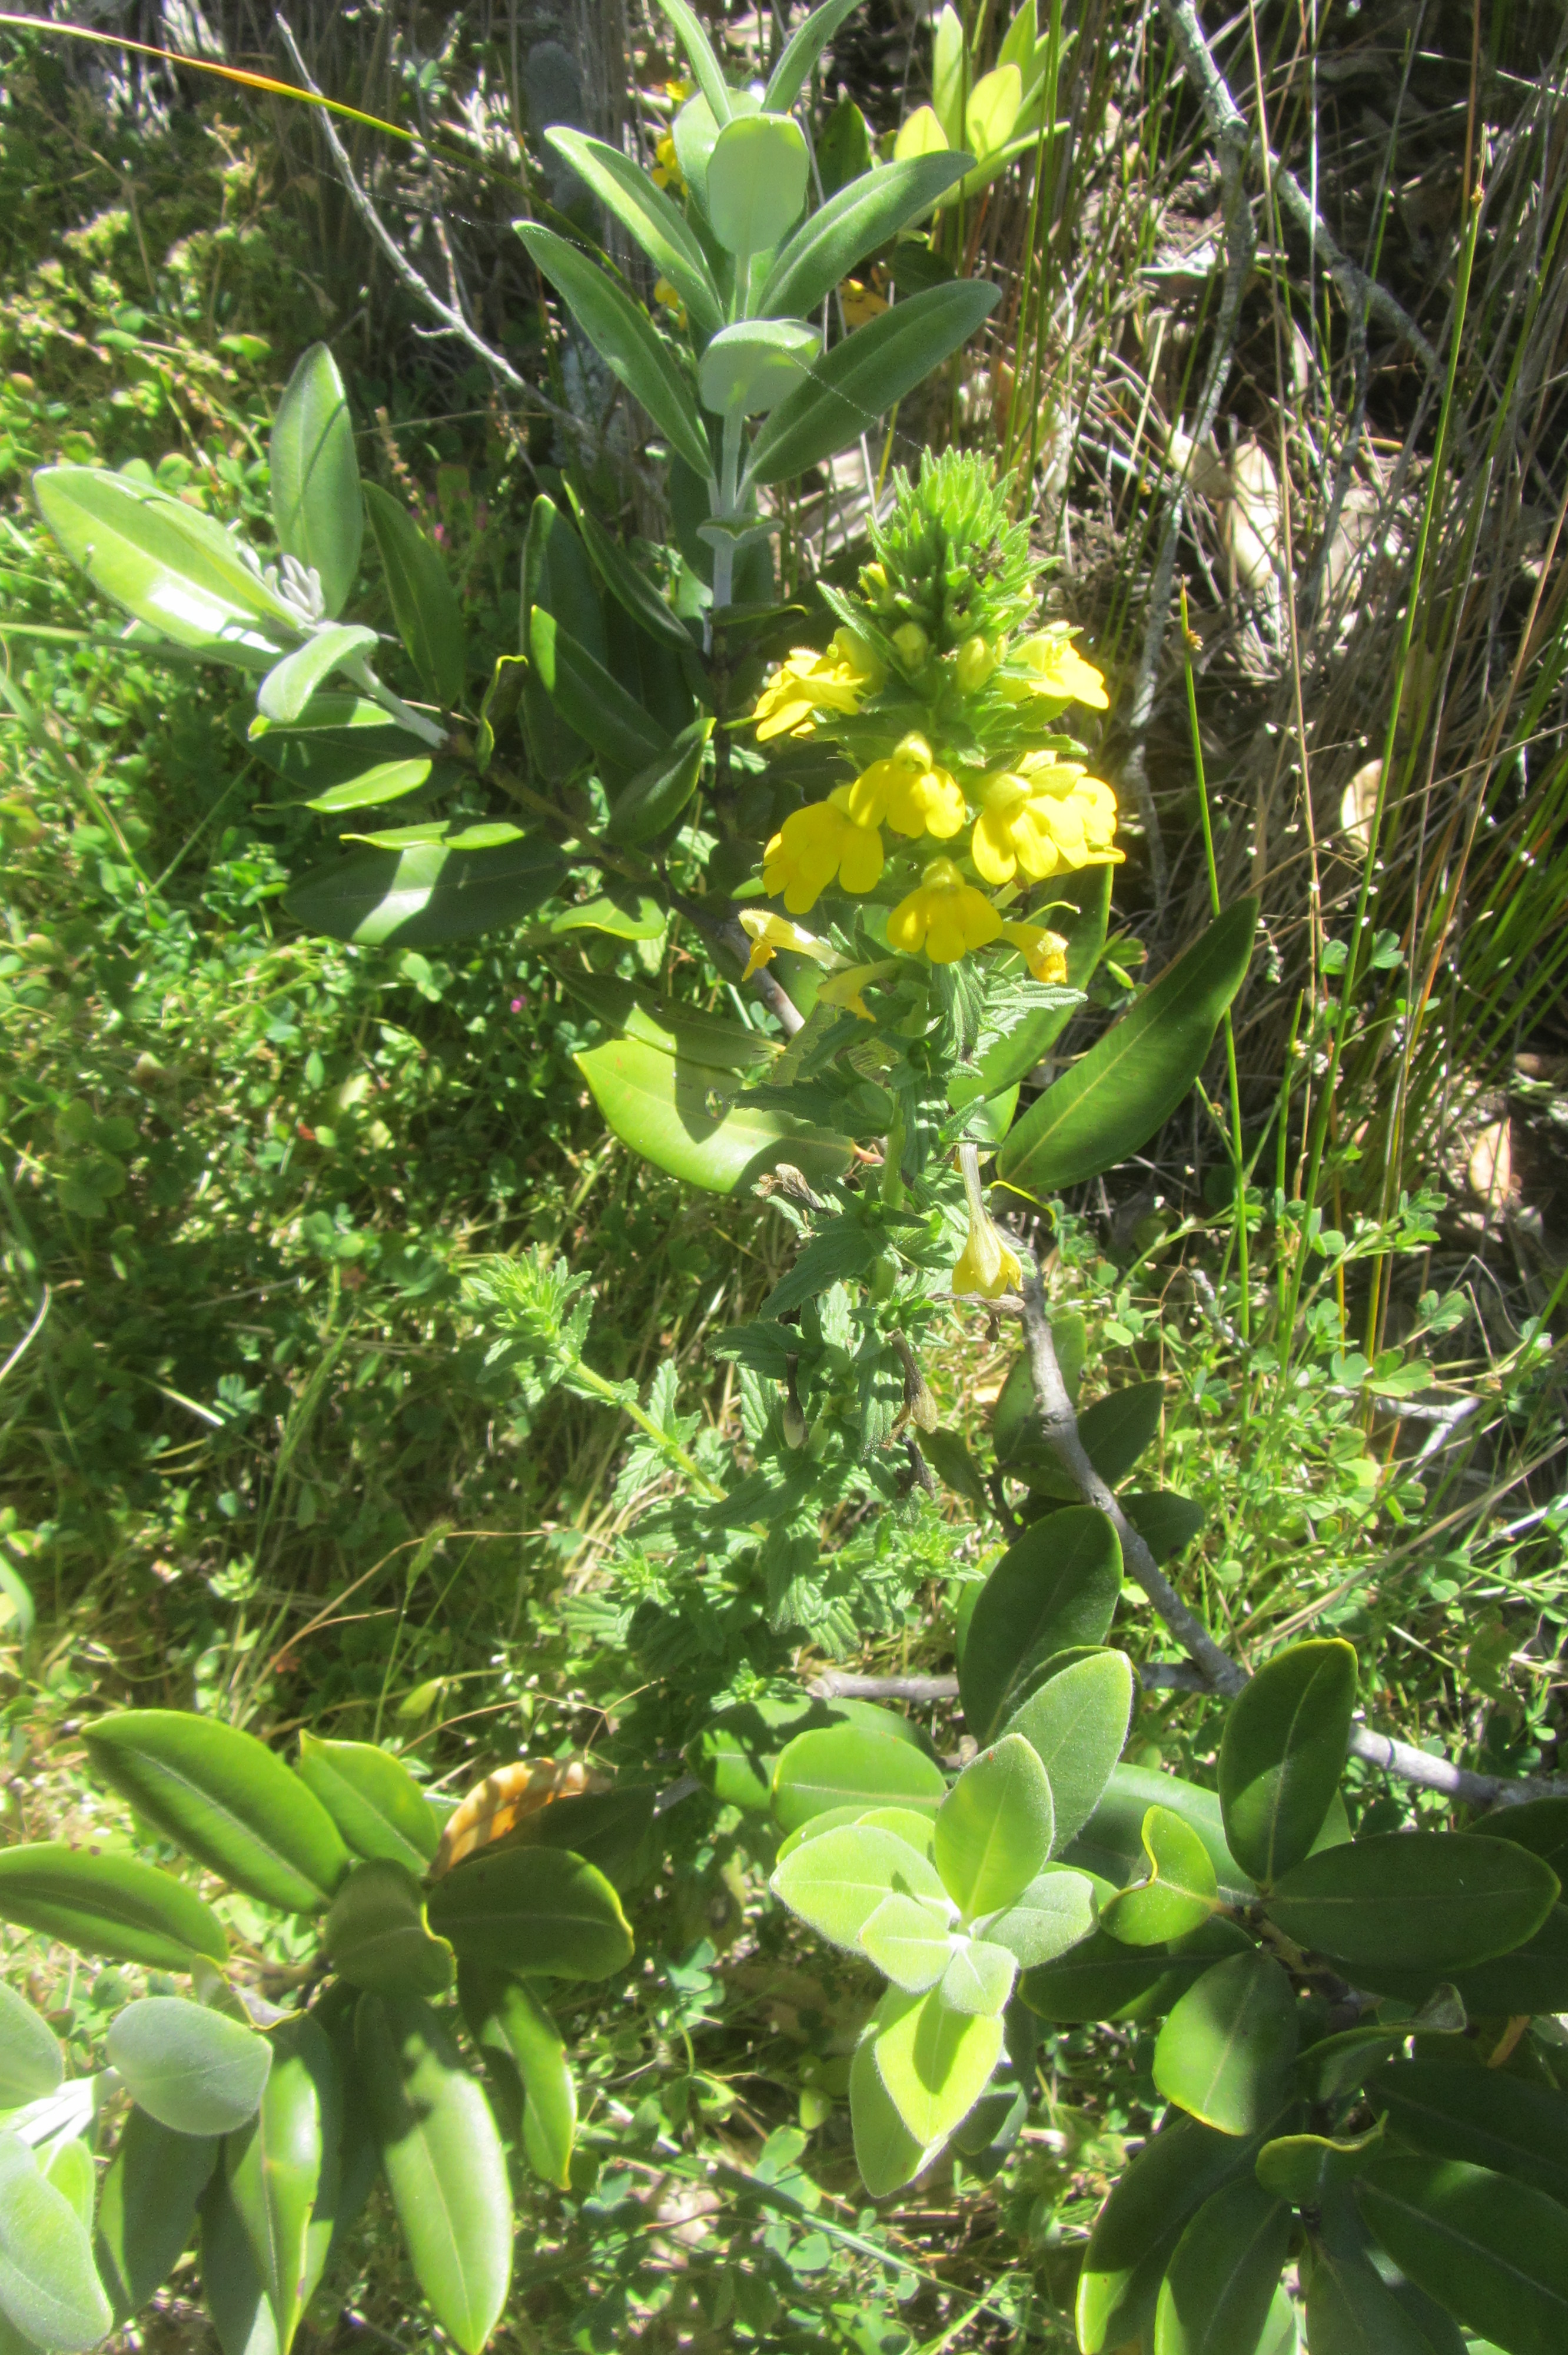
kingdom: Plantae
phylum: Tracheophyta
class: Magnoliopsida
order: Lamiales
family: Orobanchaceae
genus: Bellardia
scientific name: Bellardia viscosa
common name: Sticky parentucellia
